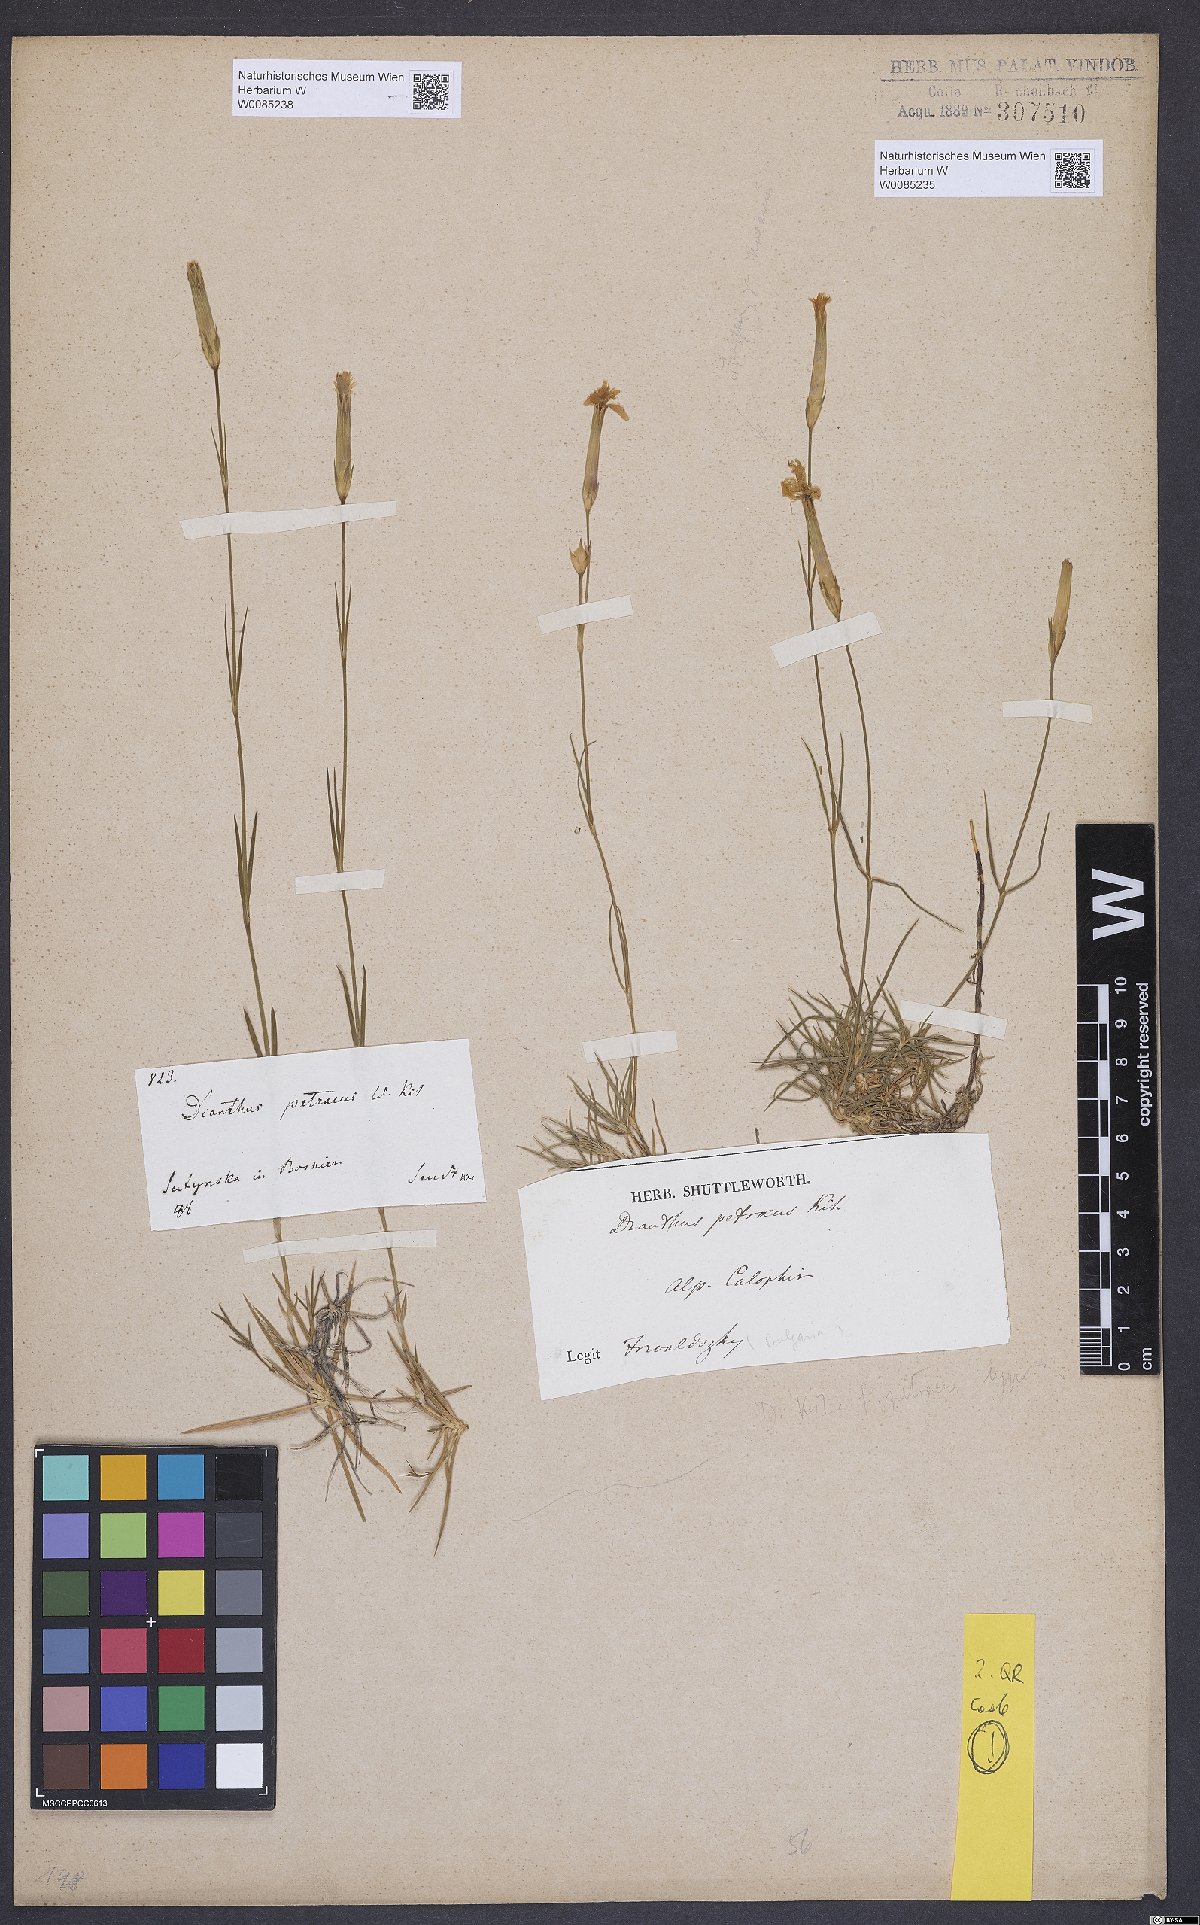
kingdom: Plantae
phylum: Tracheophyta
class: Magnoliopsida
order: Caryophyllales
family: Caryophyllaceae
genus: Dianthus
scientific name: Dianthus petraeus
